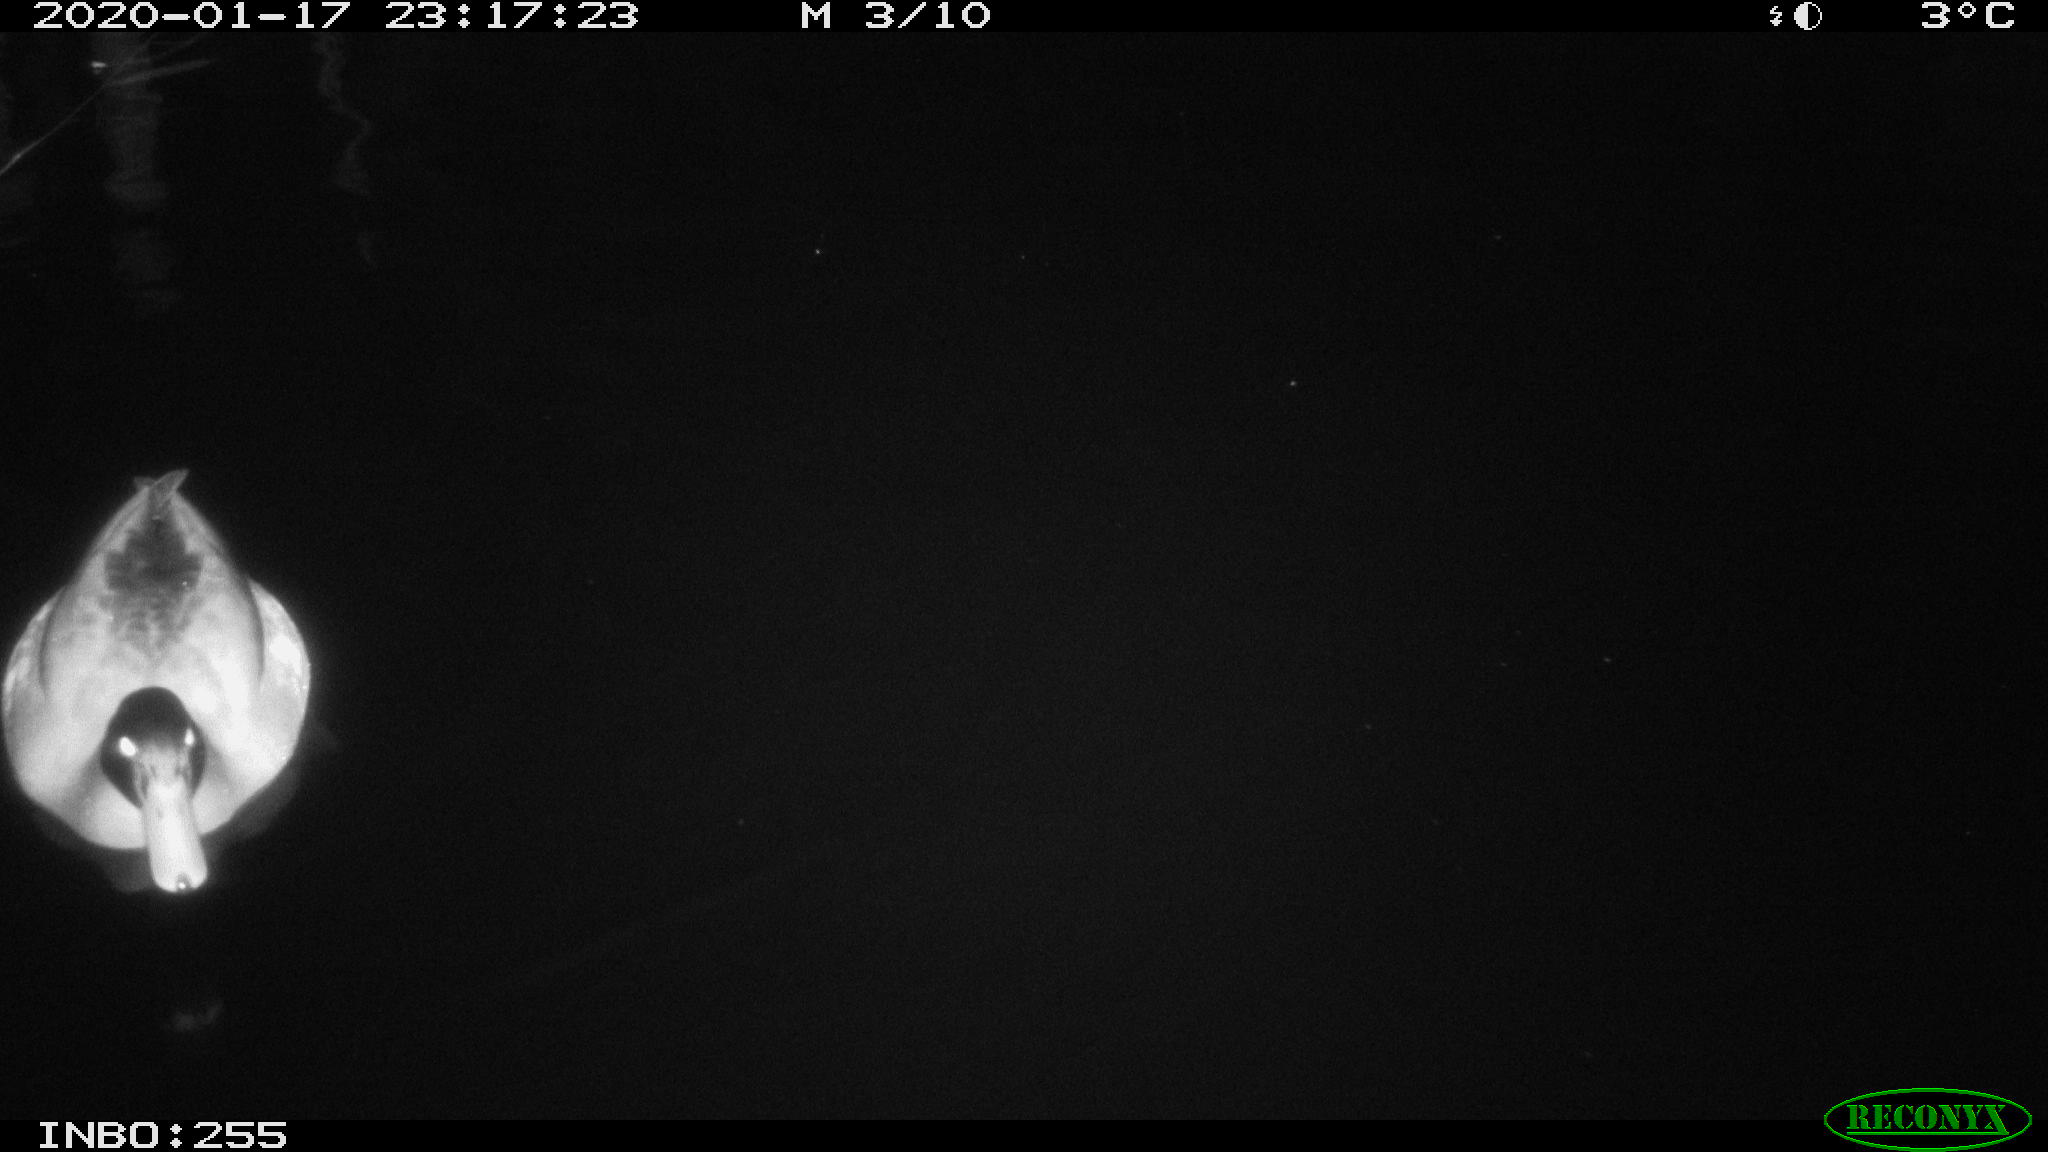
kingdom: Animalia
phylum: Chordata
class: Aves
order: Anseriformes
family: Anatidae
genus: Anas
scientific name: Anas platyrhynchos
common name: Mallard
